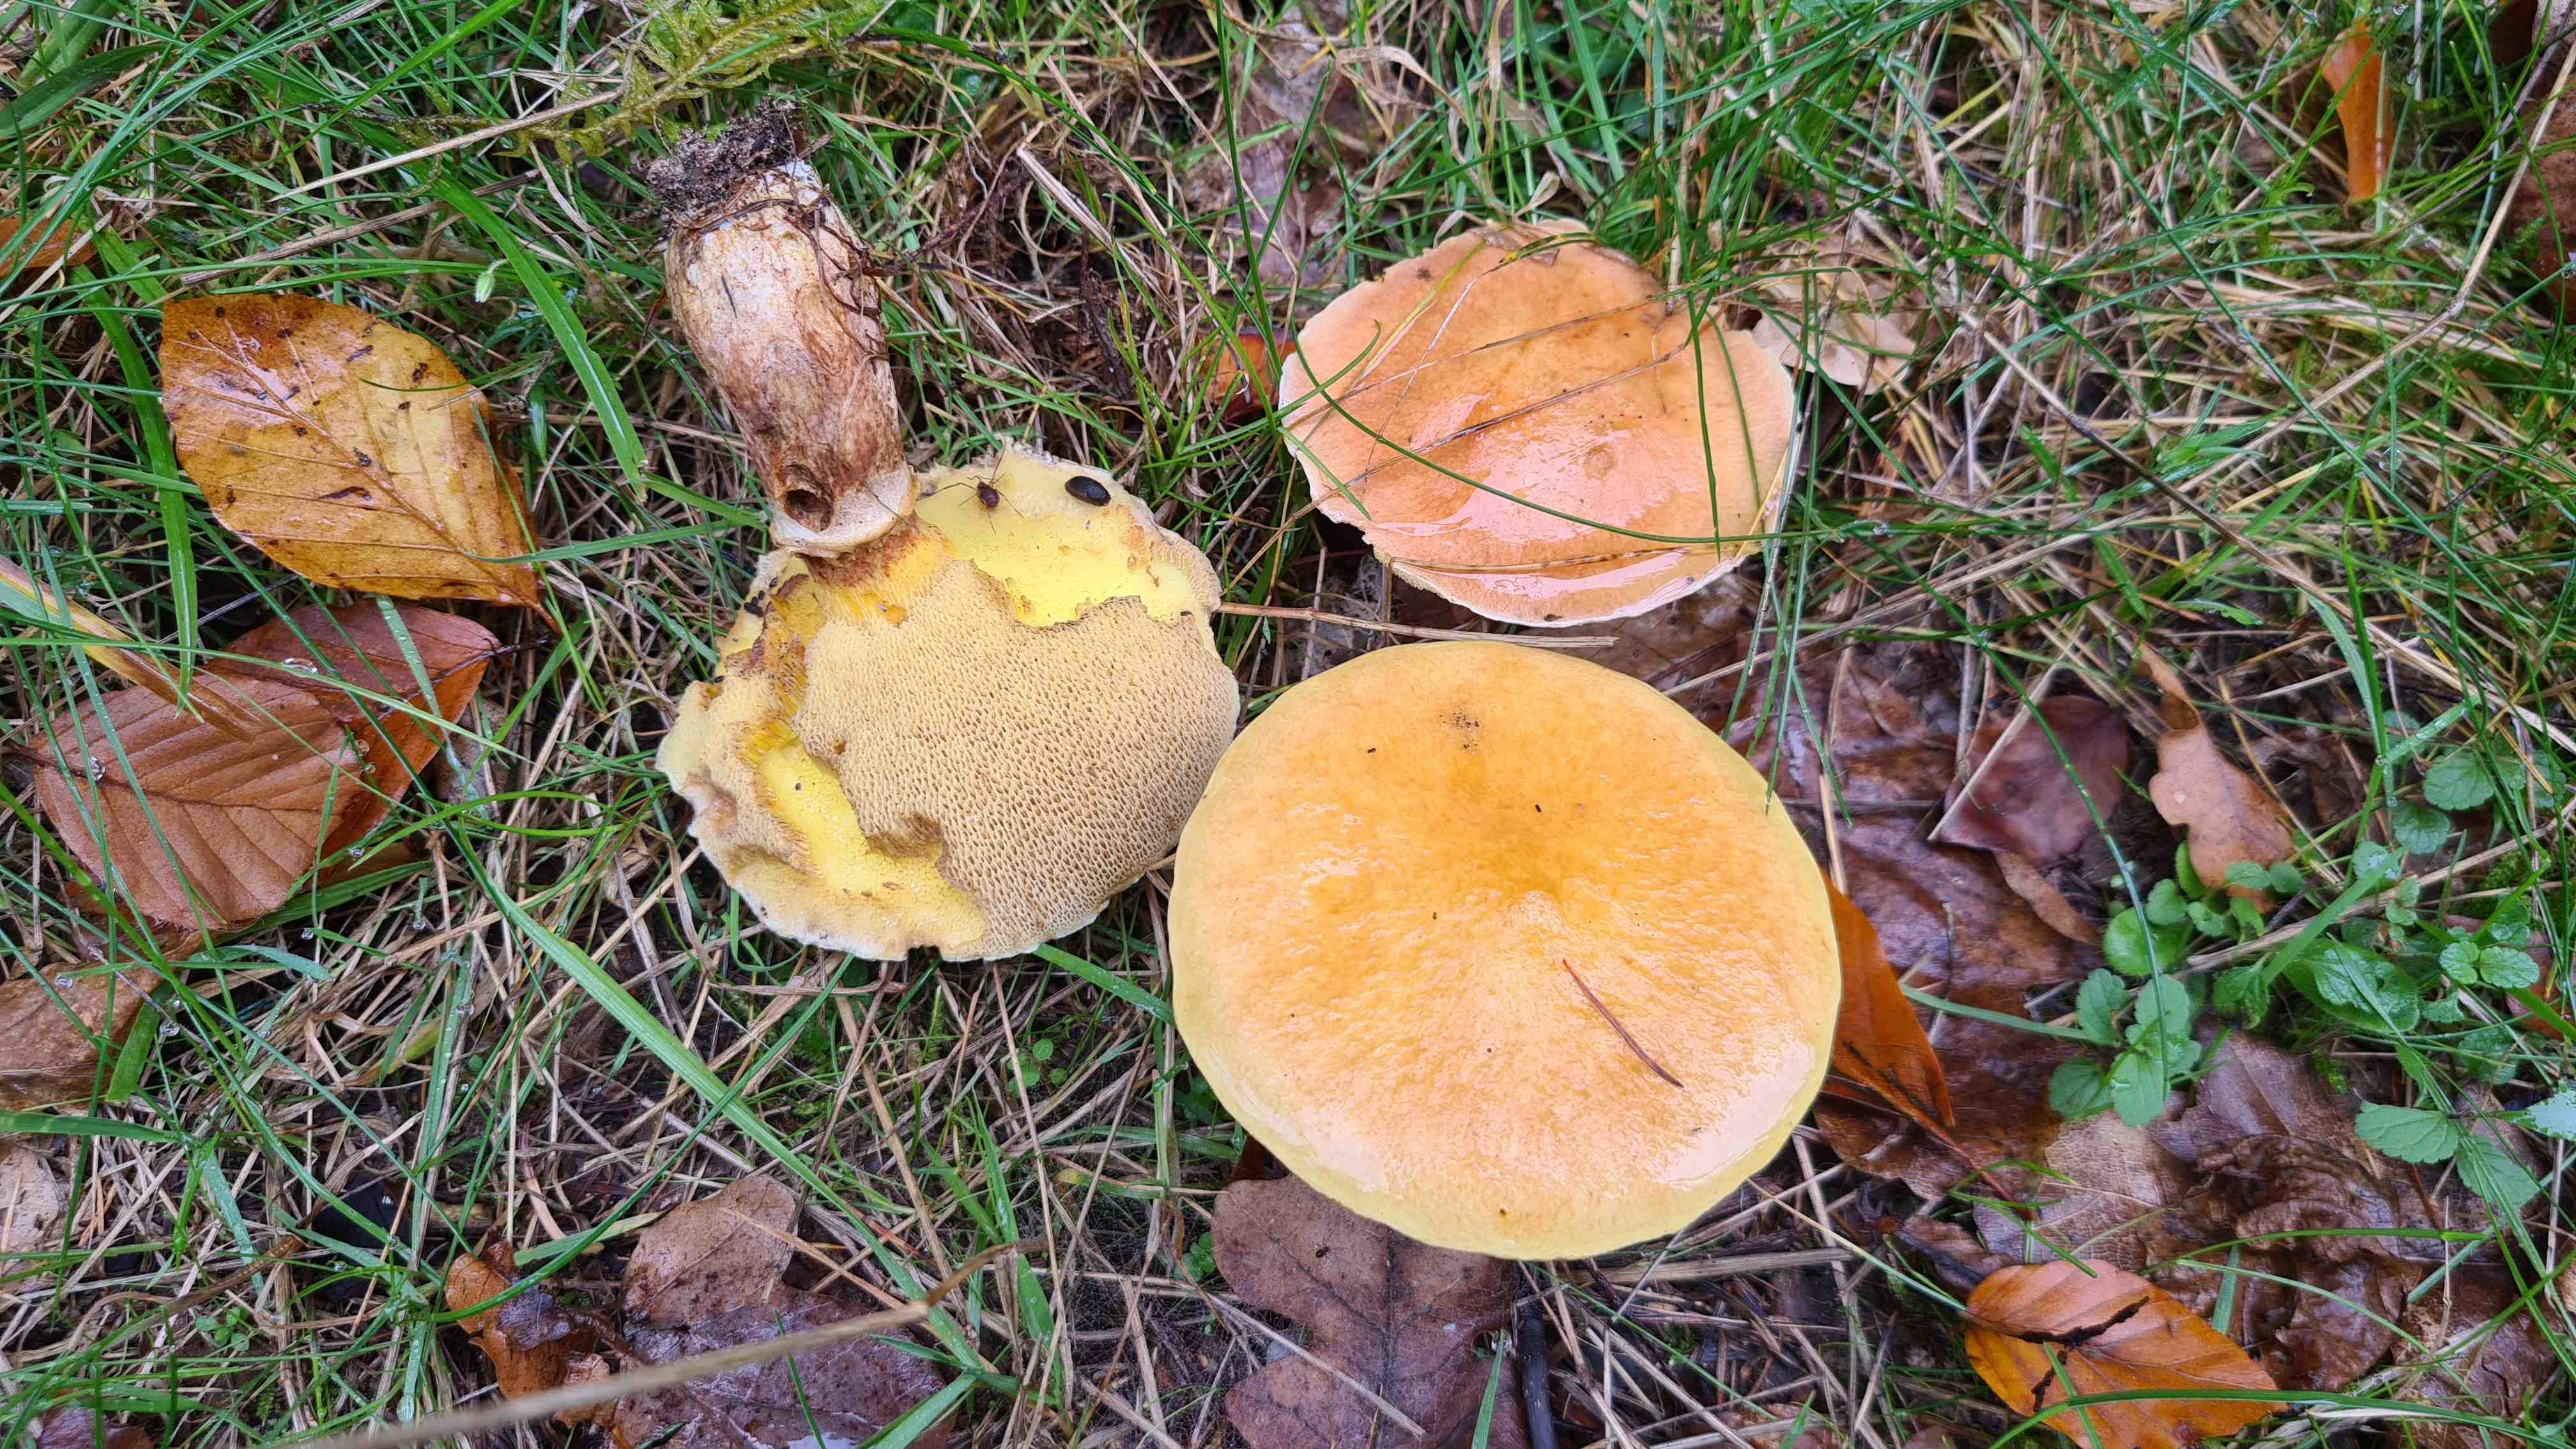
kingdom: Fungi
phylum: Basidiomycota
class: Agaricomycetes
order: Boletales
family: Suillaceae
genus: Suillus
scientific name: Suillus grevillei
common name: lærke-slimrørhat
